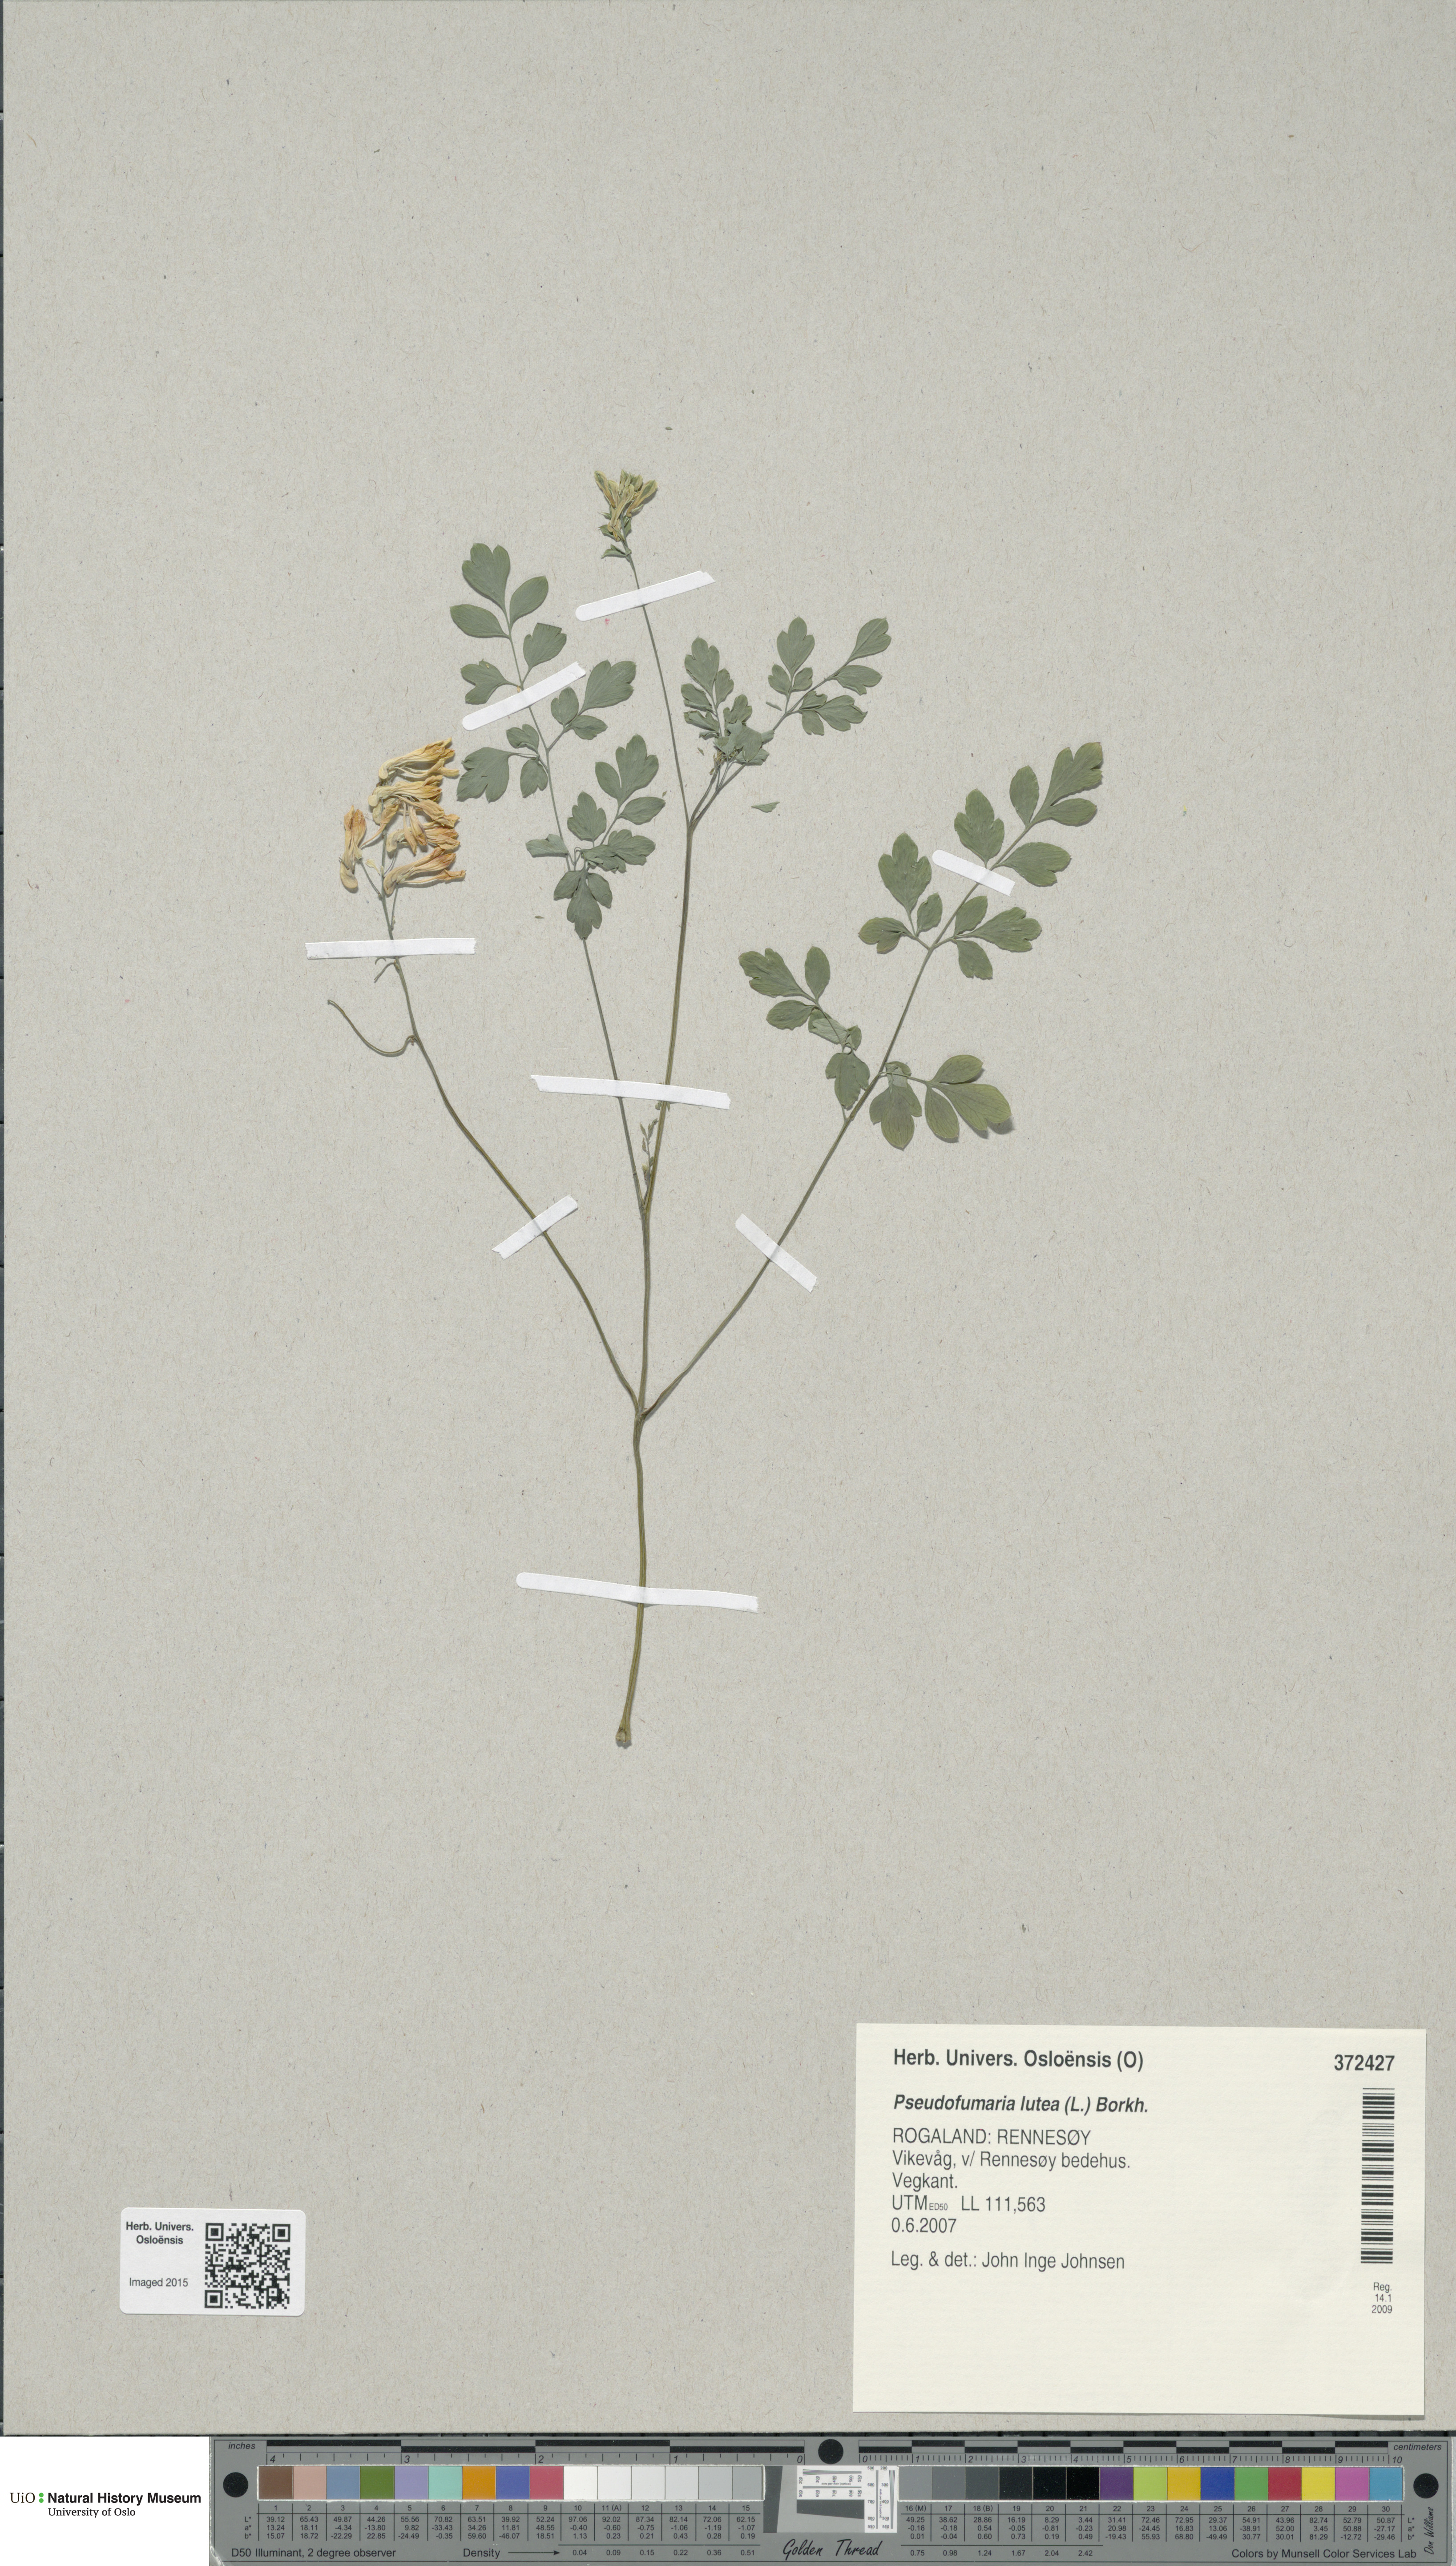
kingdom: Plantae
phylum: Tracheophyta
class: Magnoliopsida
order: Ranunculales
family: Papaveraceae
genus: Pseudofumaria
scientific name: Pseudofumaria lutea
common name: Yellow corydalis
